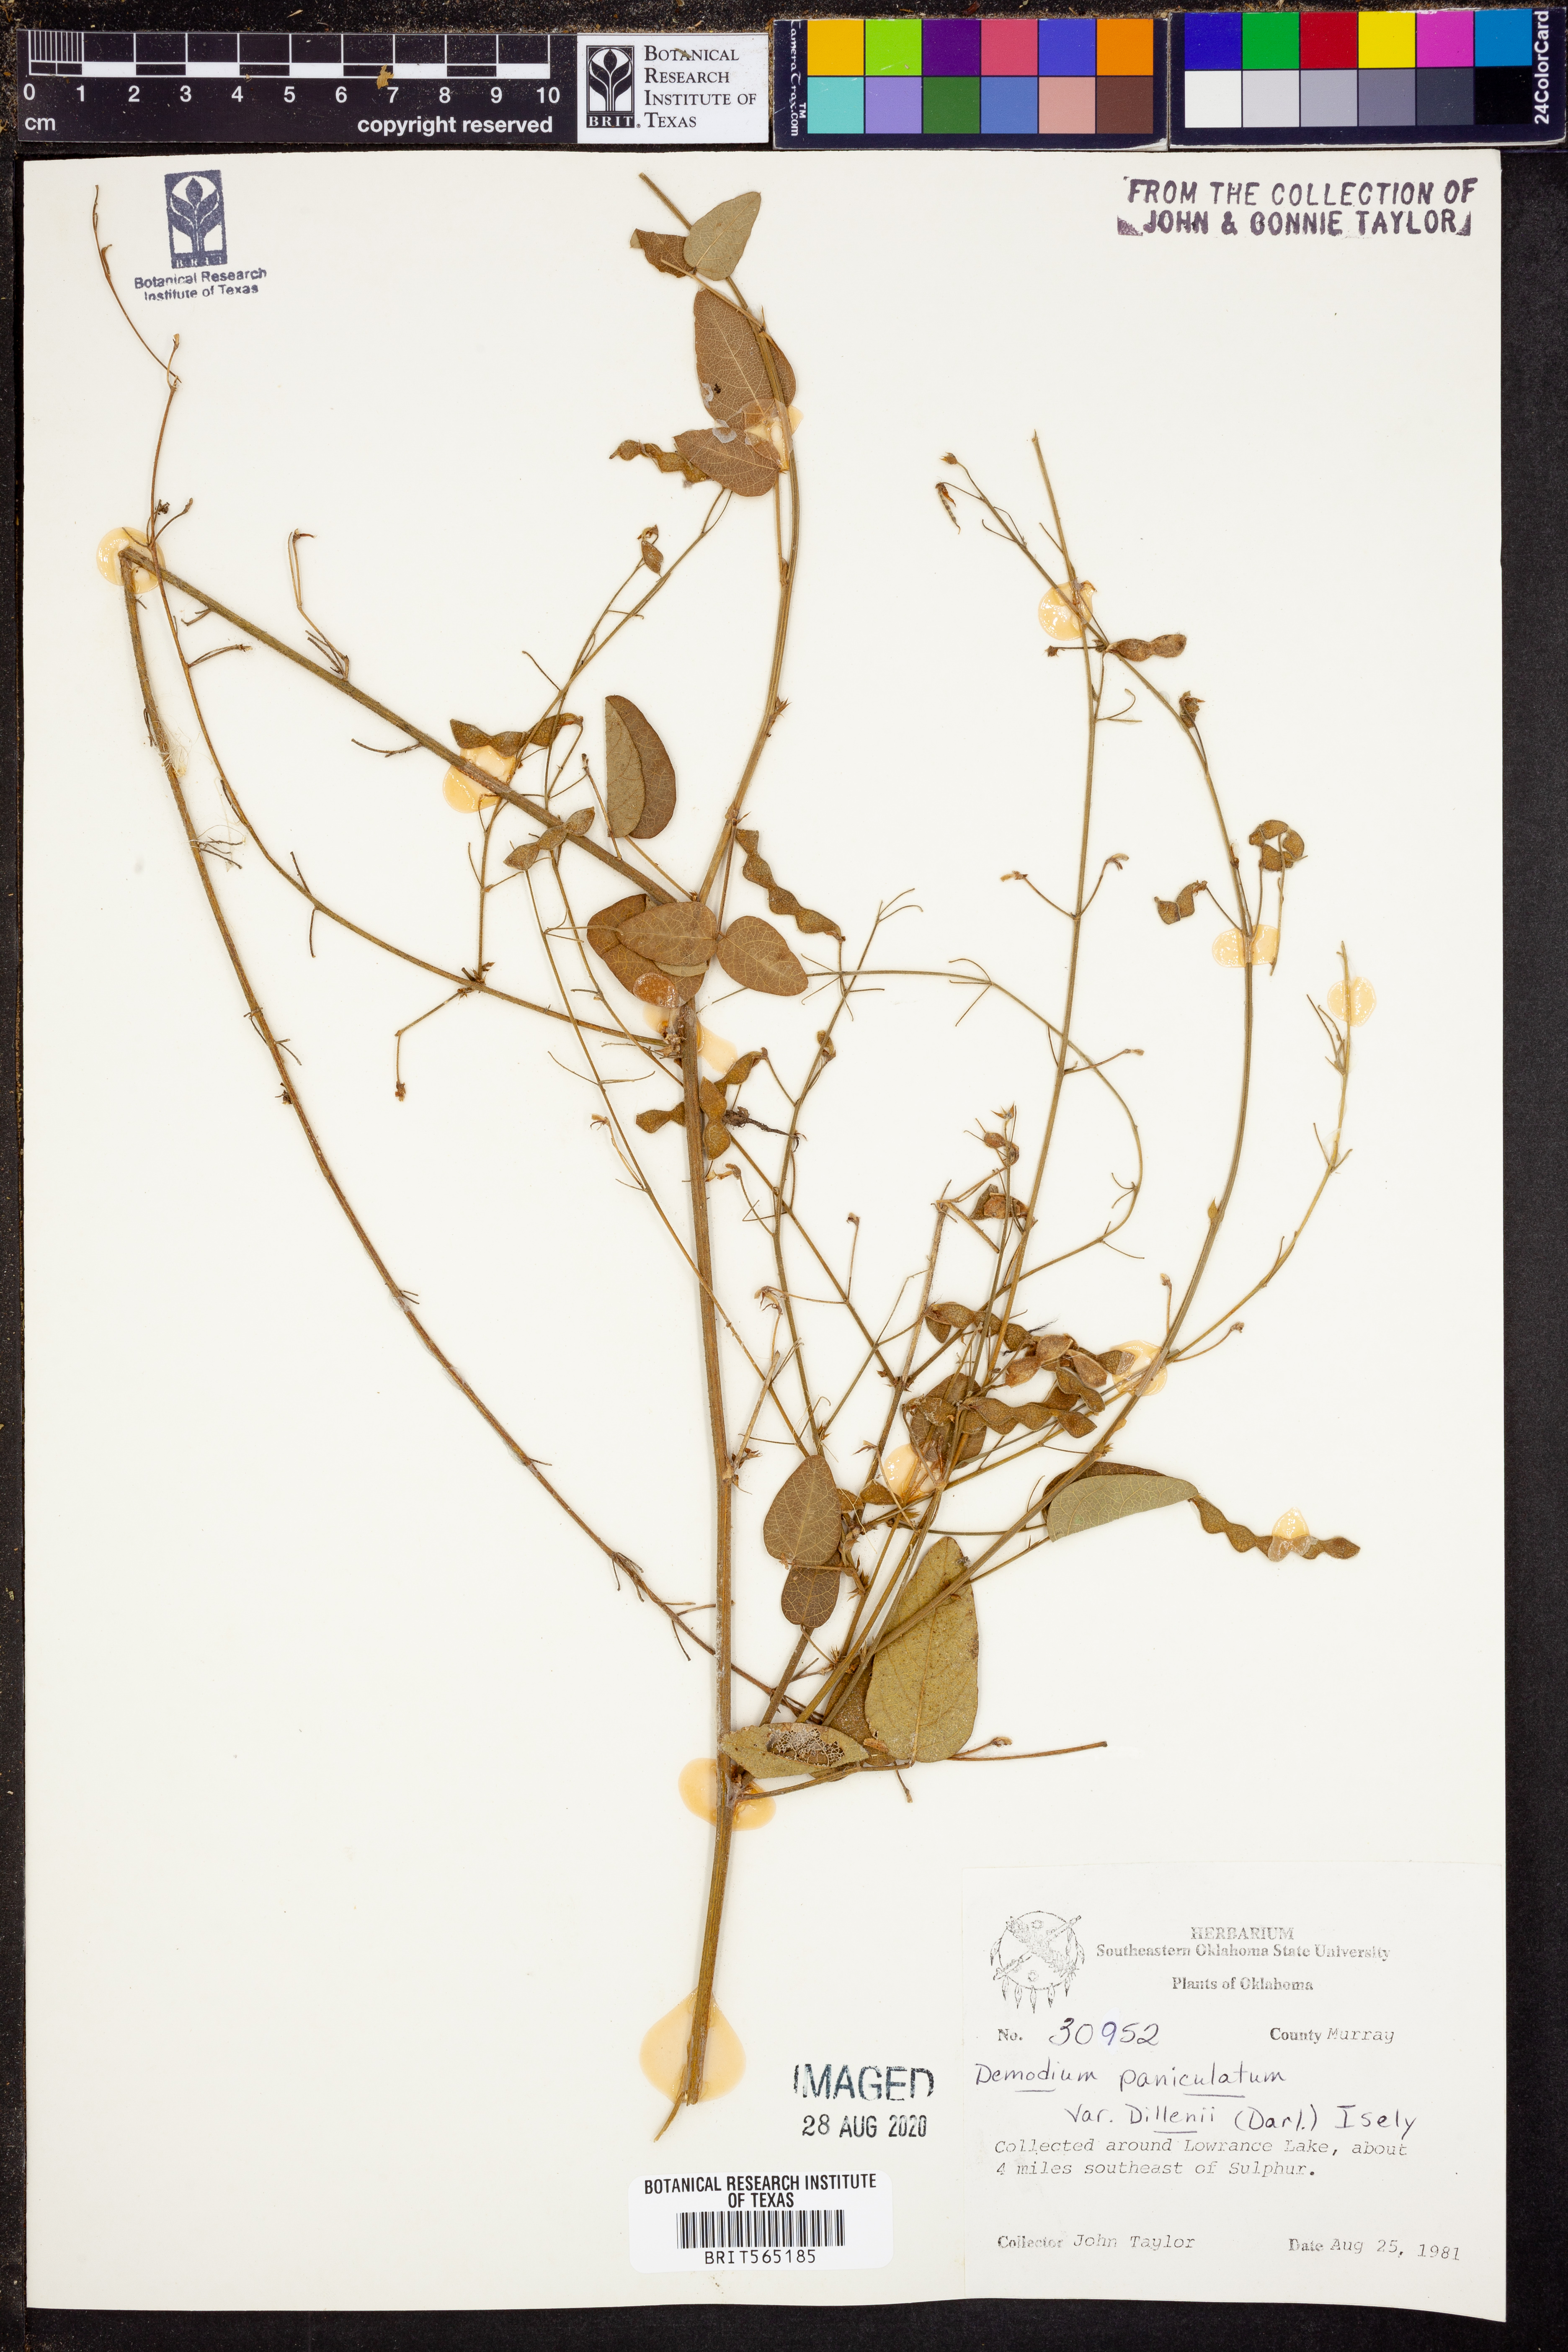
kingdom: Plantae
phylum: Tracheophyta
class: Magnoliopsida
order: Fabales
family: Fabaceae
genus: Desmodium
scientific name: Desmodium perplexum
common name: Perplexed tick trefoil
